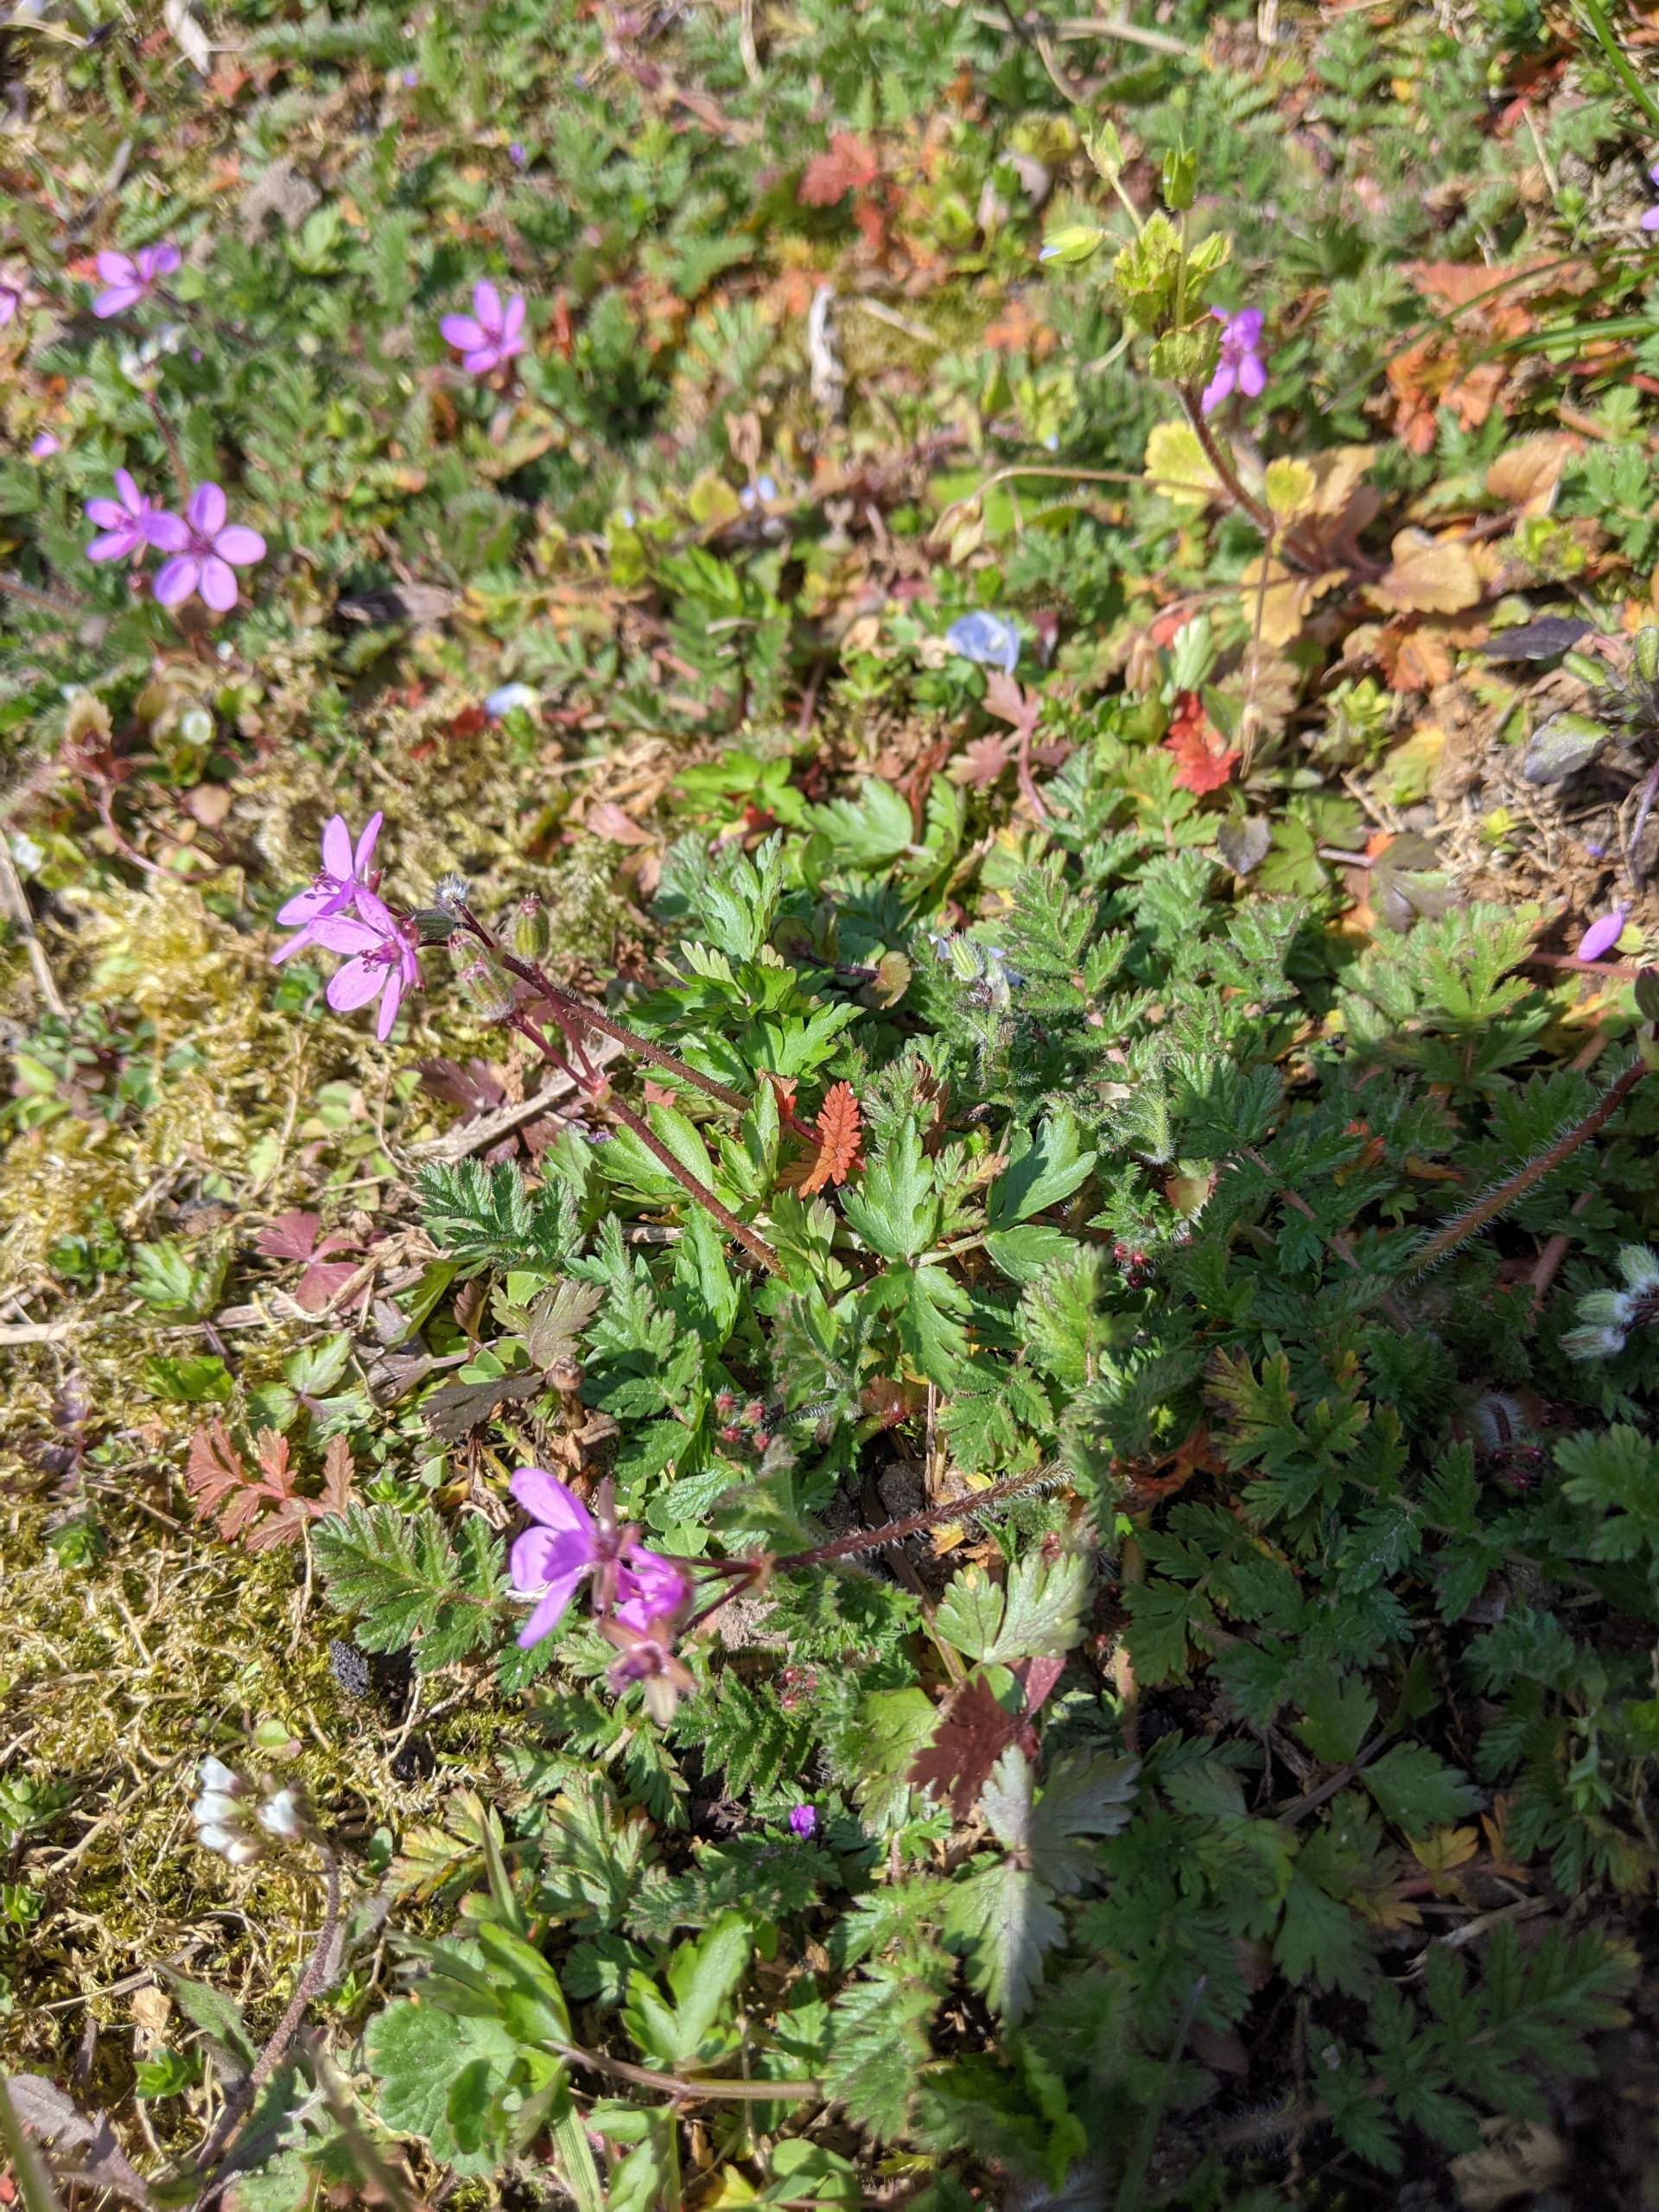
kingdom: Plantae
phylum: Tracheophyta
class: Magnoliopsida
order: Geraniales
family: Geraniaceae
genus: Erodium
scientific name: Erodium cicutarium
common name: Hejrenæb
